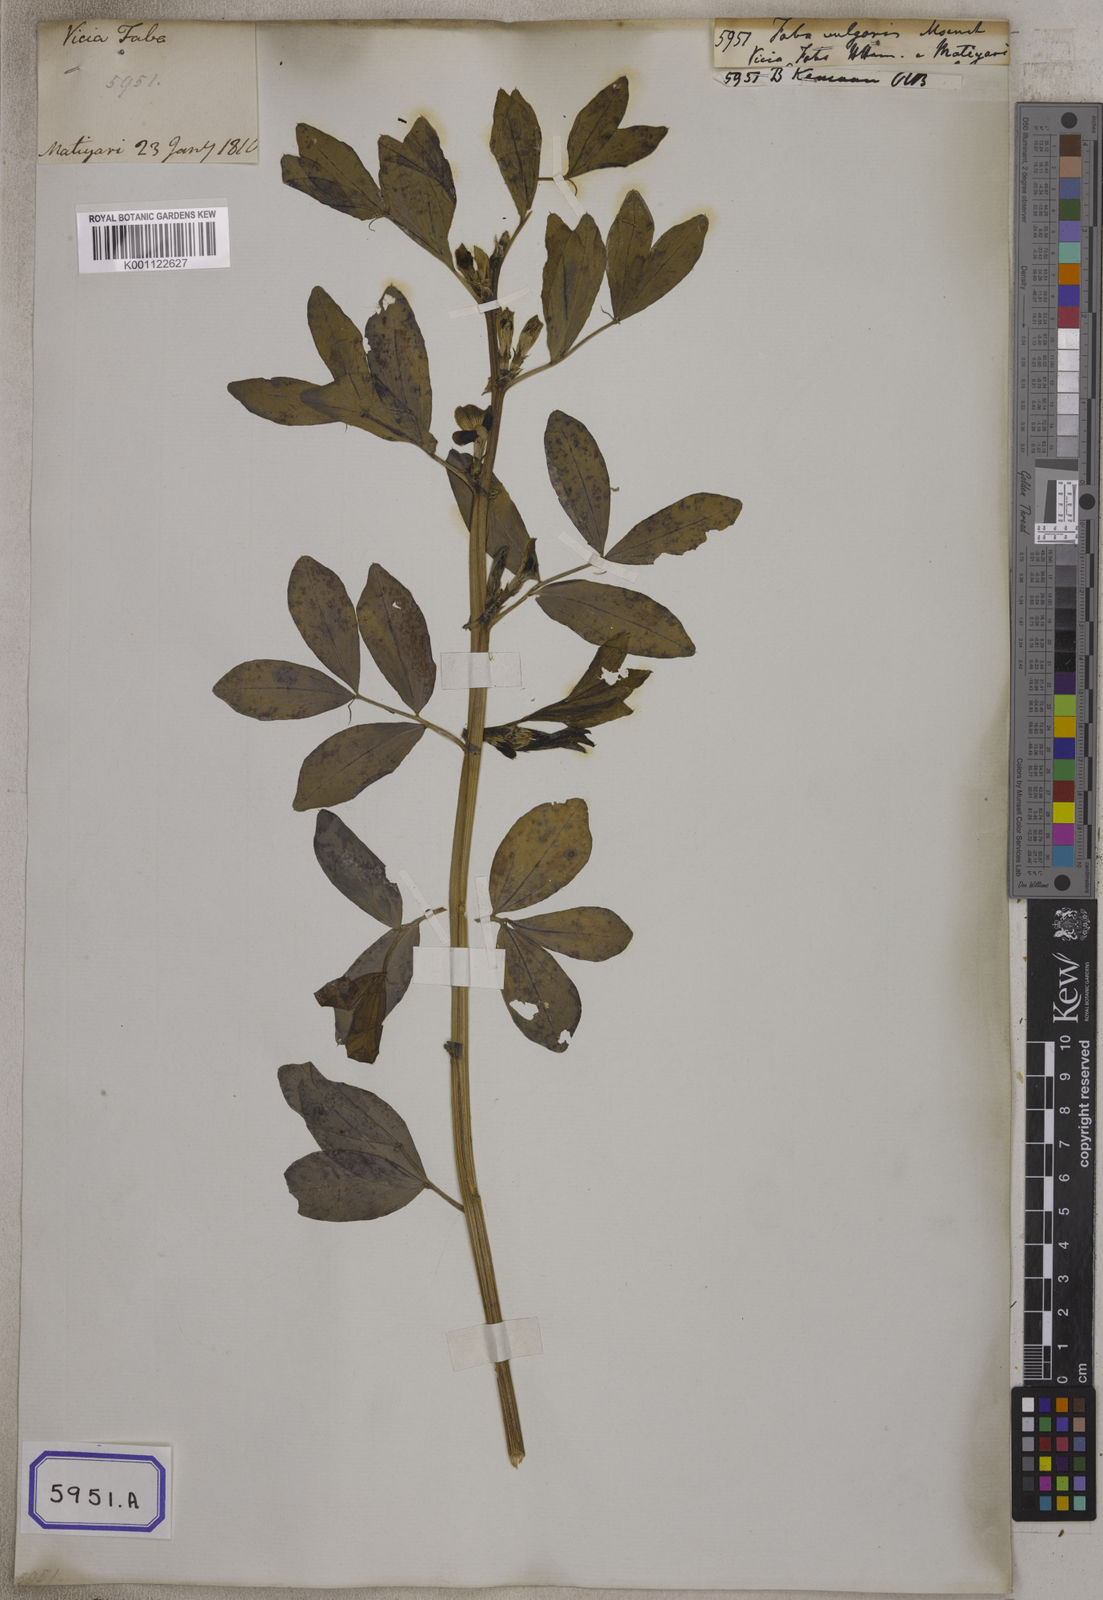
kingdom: Plantae
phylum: Tracheophyta
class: Magnoliopsida
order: Fabales
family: Fabaceae
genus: Vicia
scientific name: Vicia faba
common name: Broad bean
